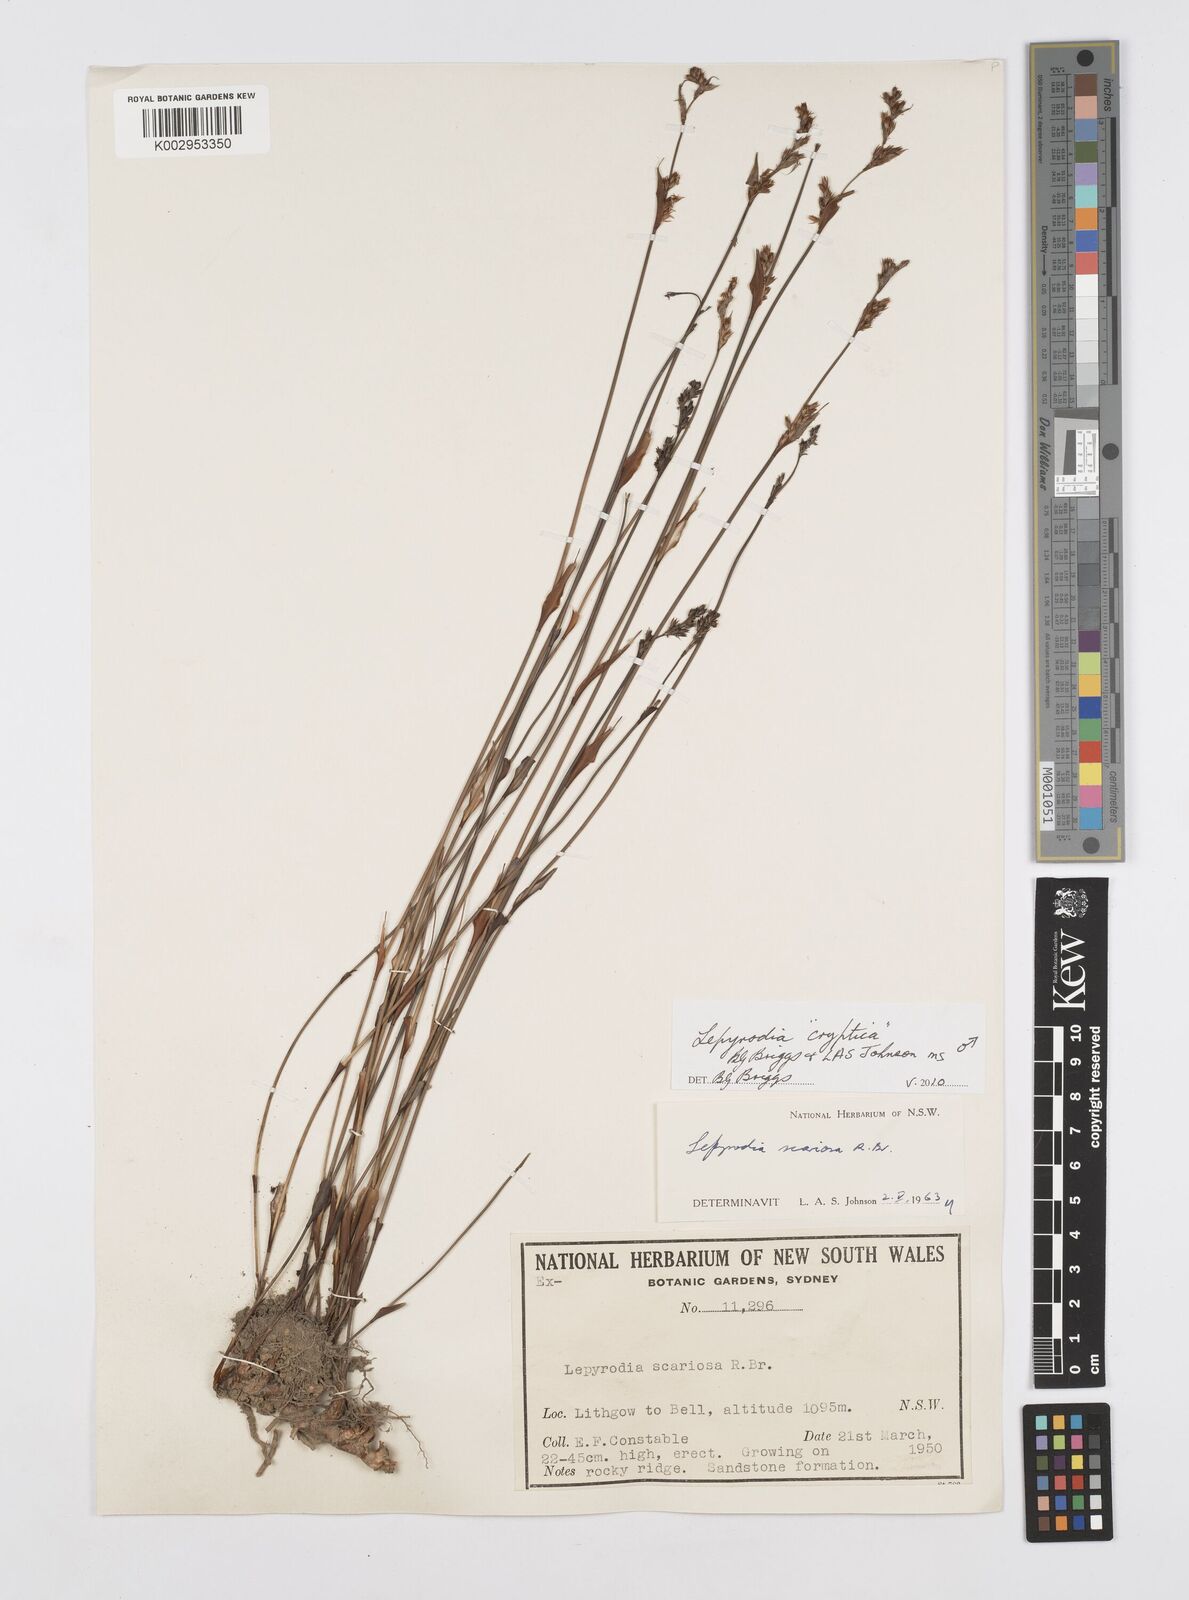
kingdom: Plantae
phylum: Tracheophyta
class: Liliopsida
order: Poales
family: Restionaceae
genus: Lepyrodia
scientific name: Lepyrodia cryptica
